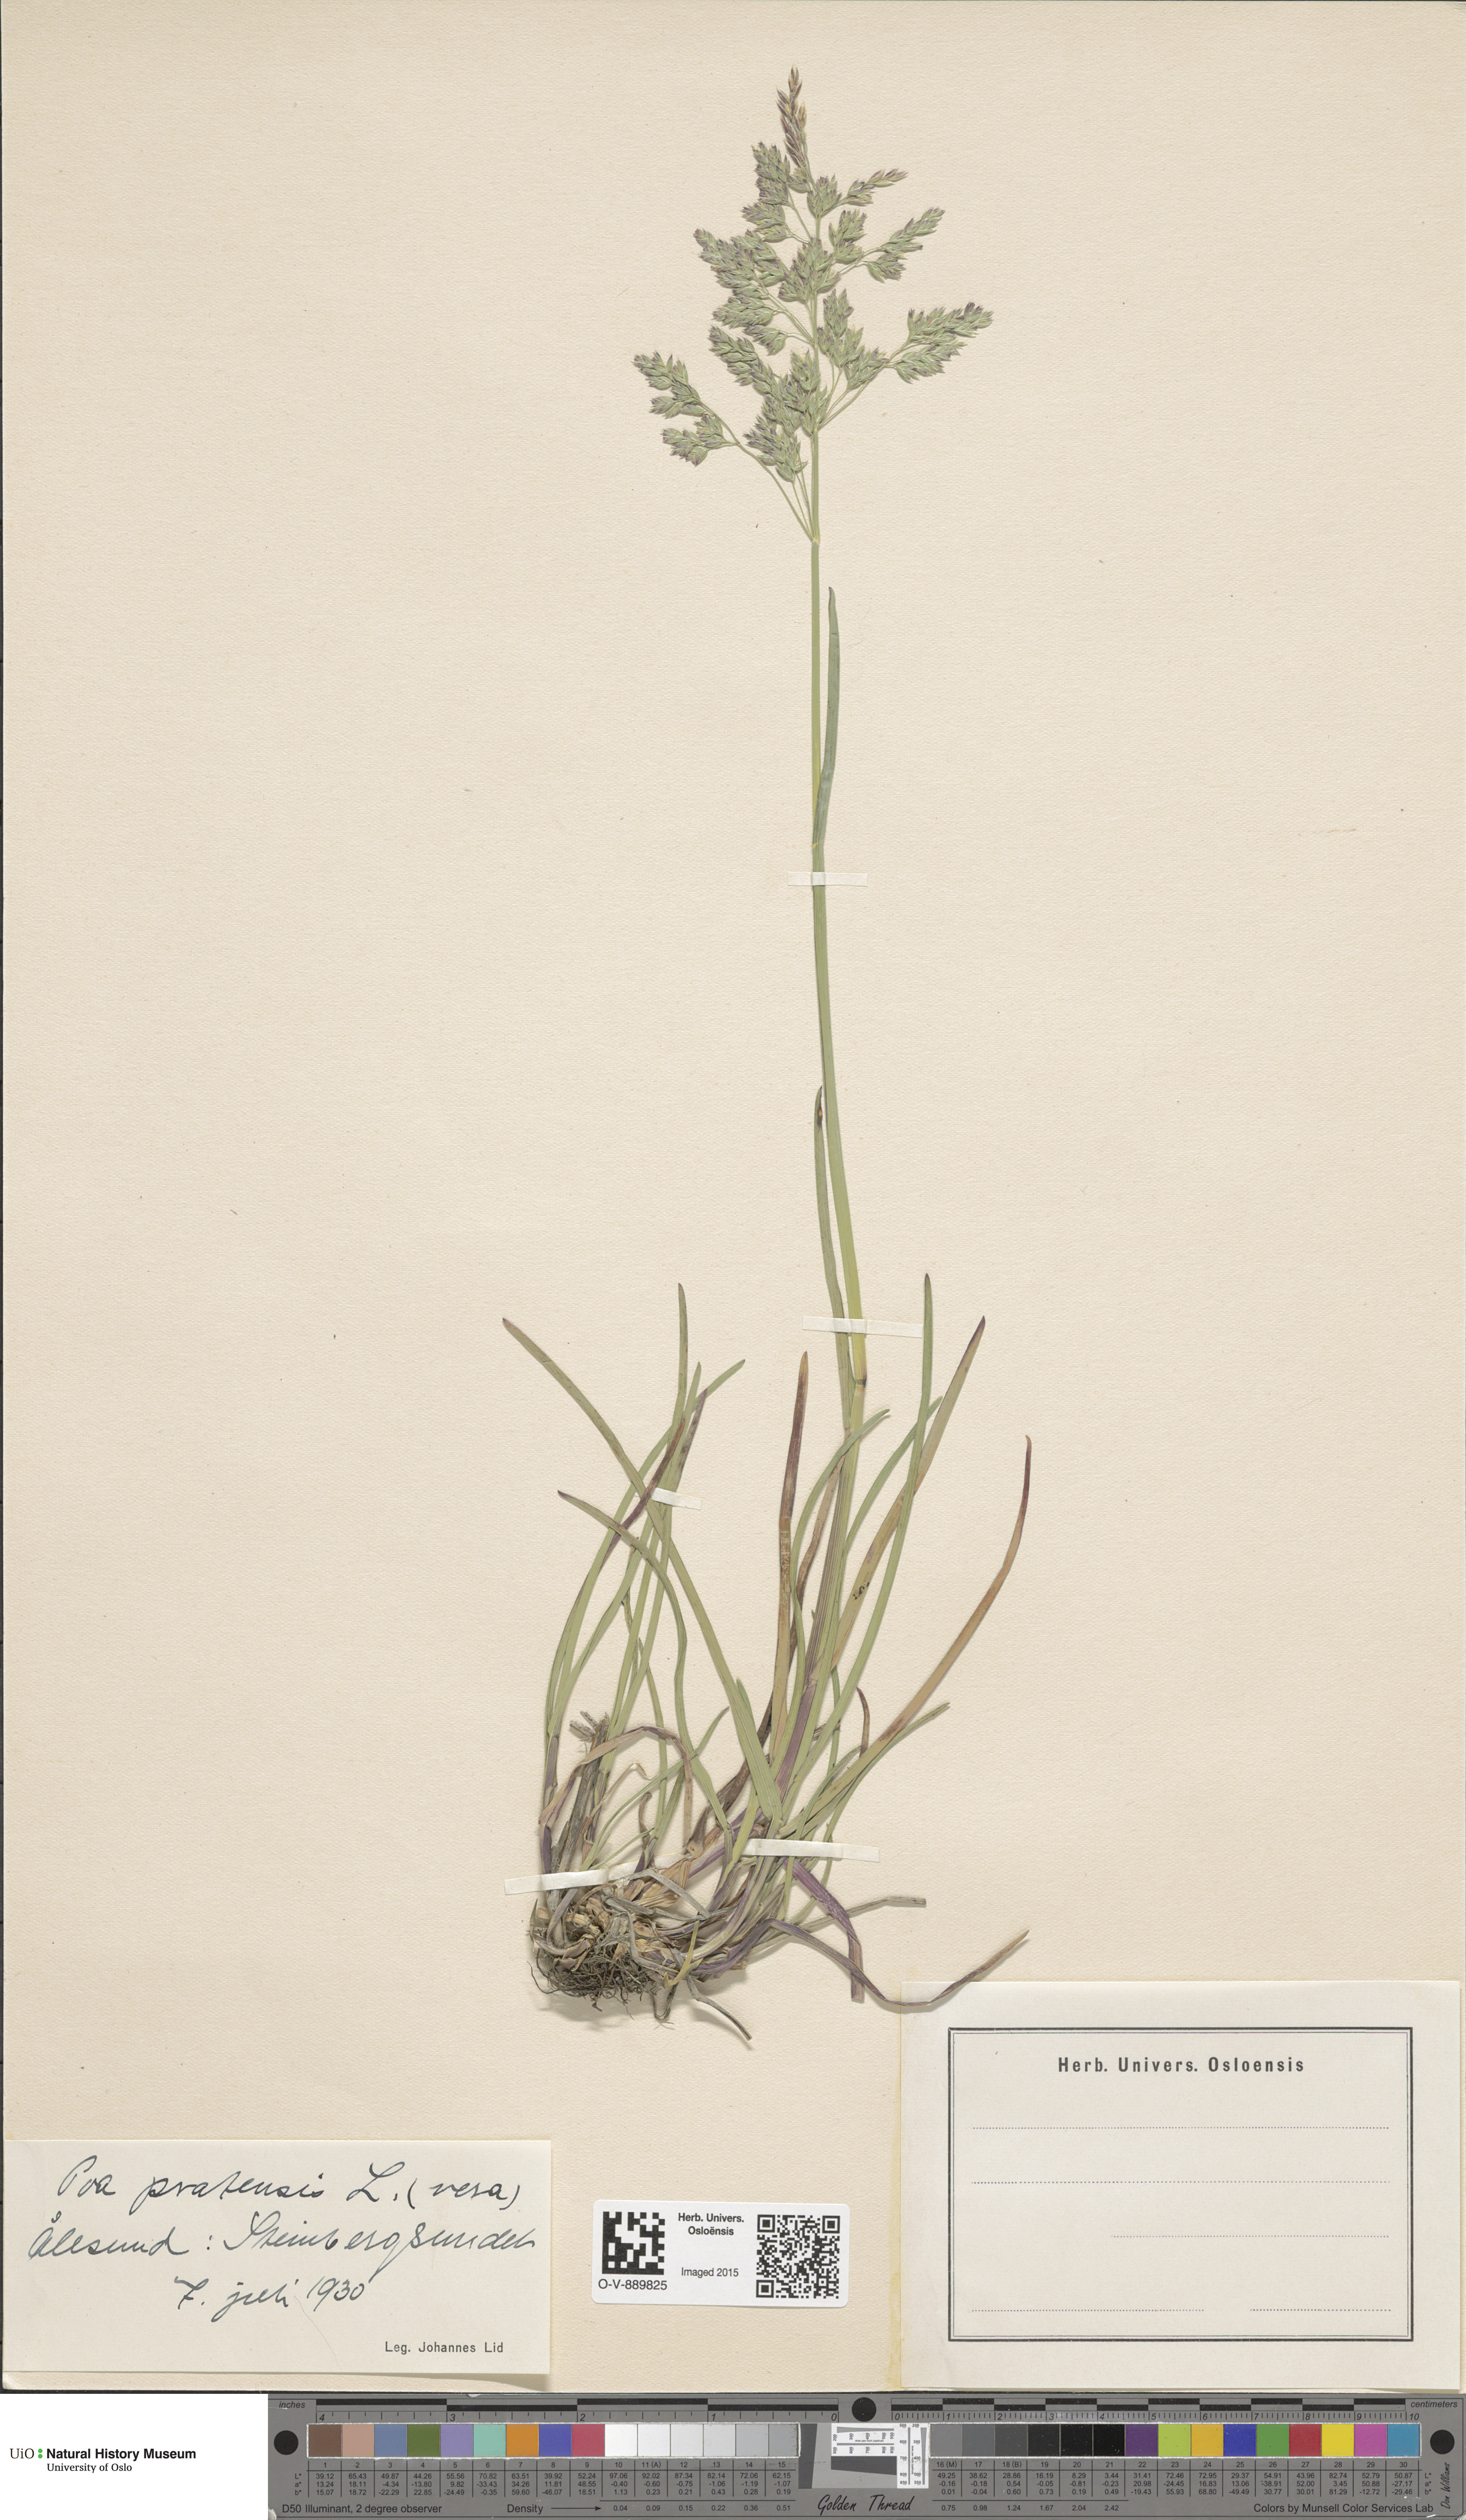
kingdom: Plantae
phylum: Tracheophyta
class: Liliopsida
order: Poales
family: Poaceae
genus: Poa
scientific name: Poa pratensis
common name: Kentucky bluegrass
